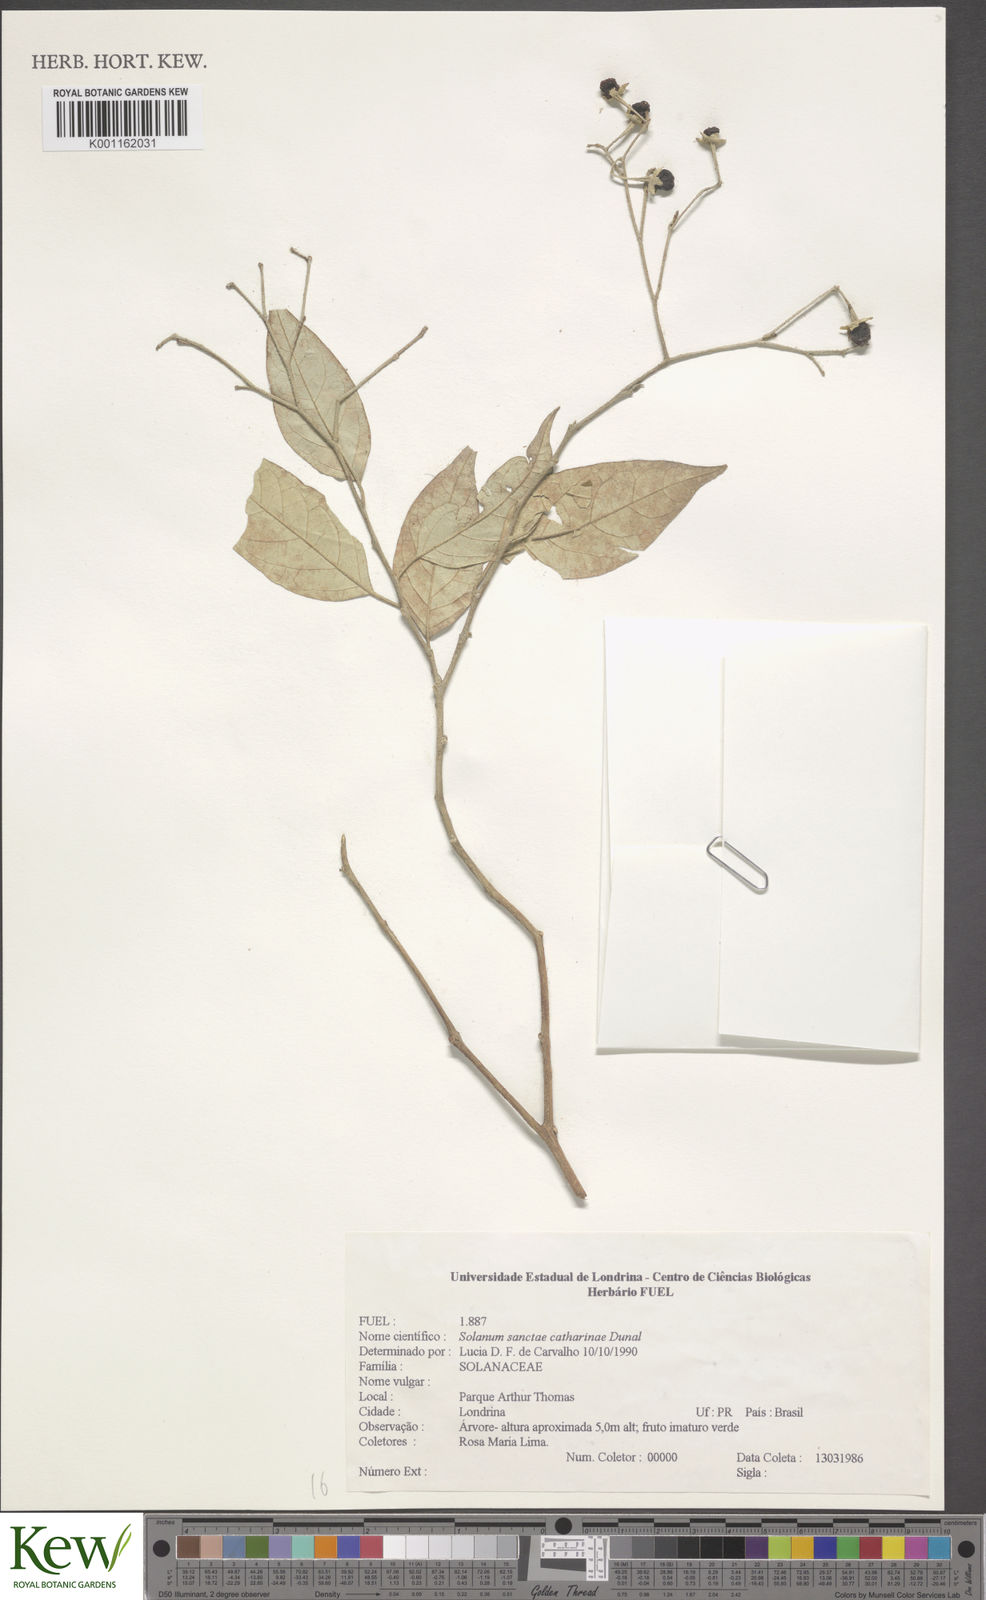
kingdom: Plantae
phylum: Tracheophyta
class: Magnoliopsida
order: Solanales
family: Solanaceae
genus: Solanum
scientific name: Solanum sanctae-catharinae
